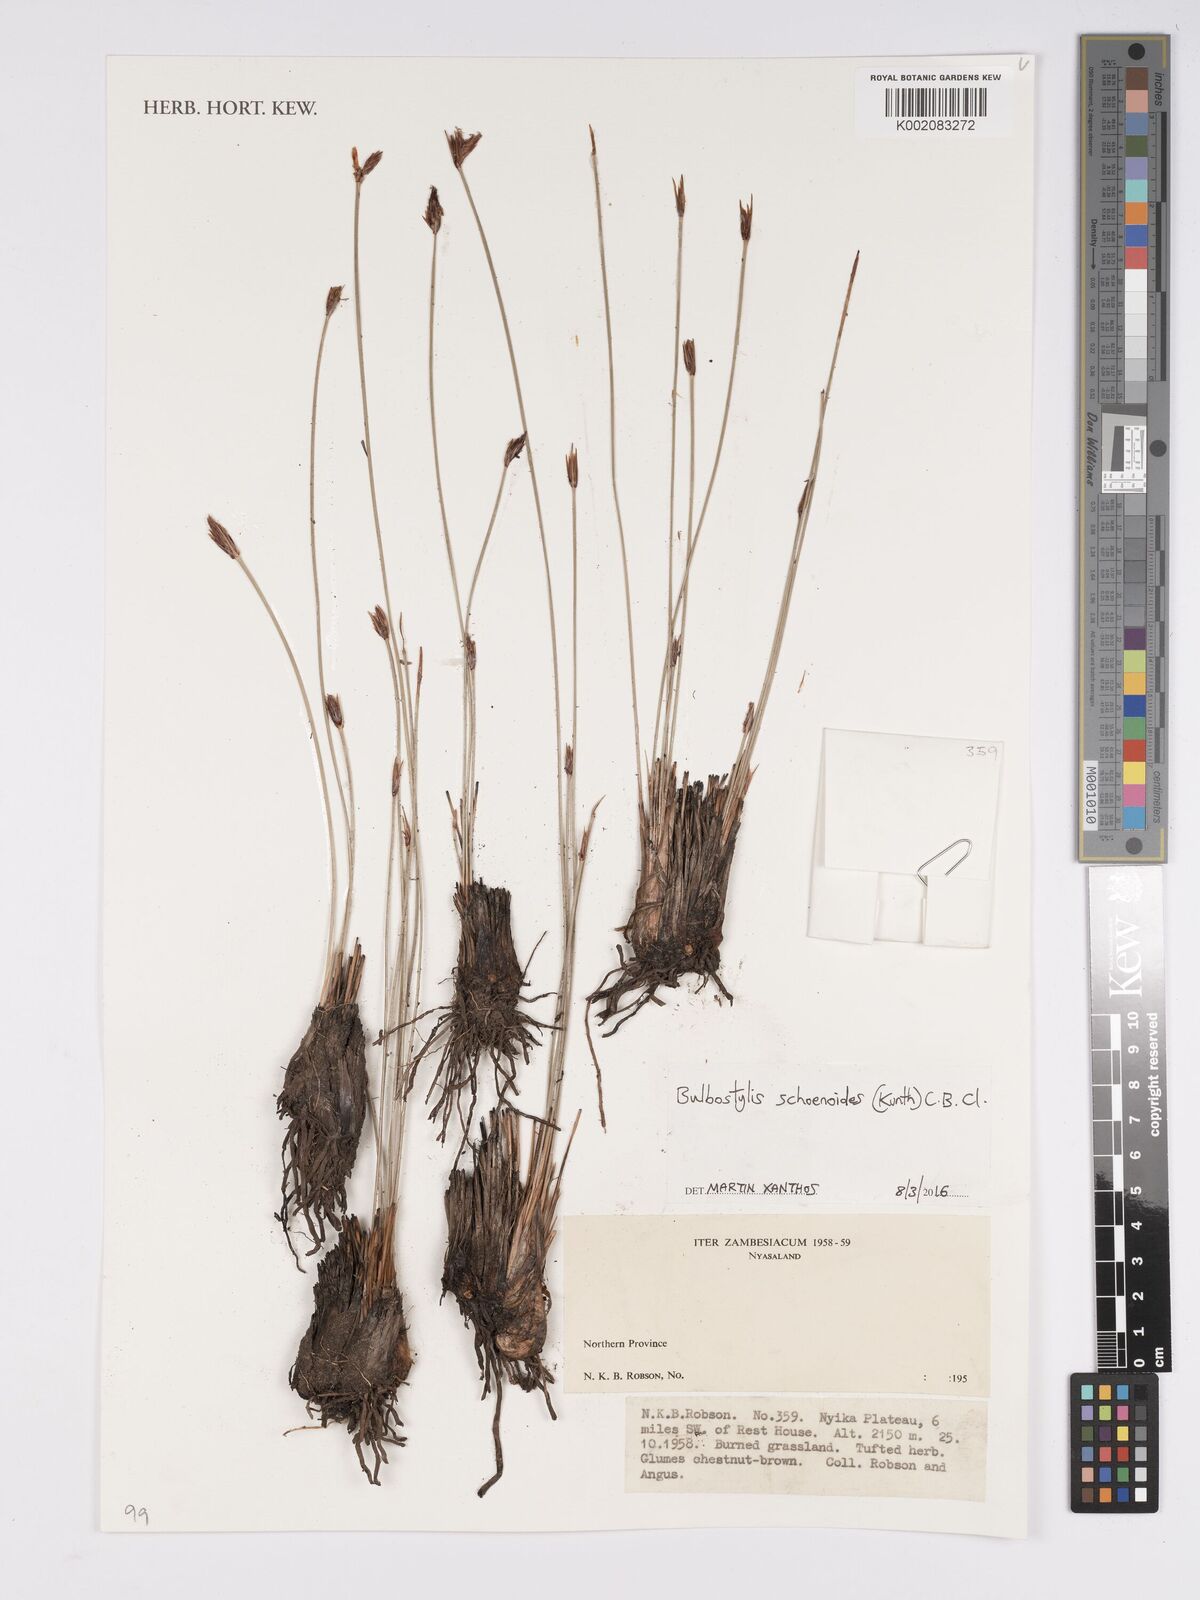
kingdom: Plantae
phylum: Tracheophyta
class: Liliopsida
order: Poales
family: Cyperaceae
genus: Bulbostylis
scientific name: Bulbostylis schoenoides
